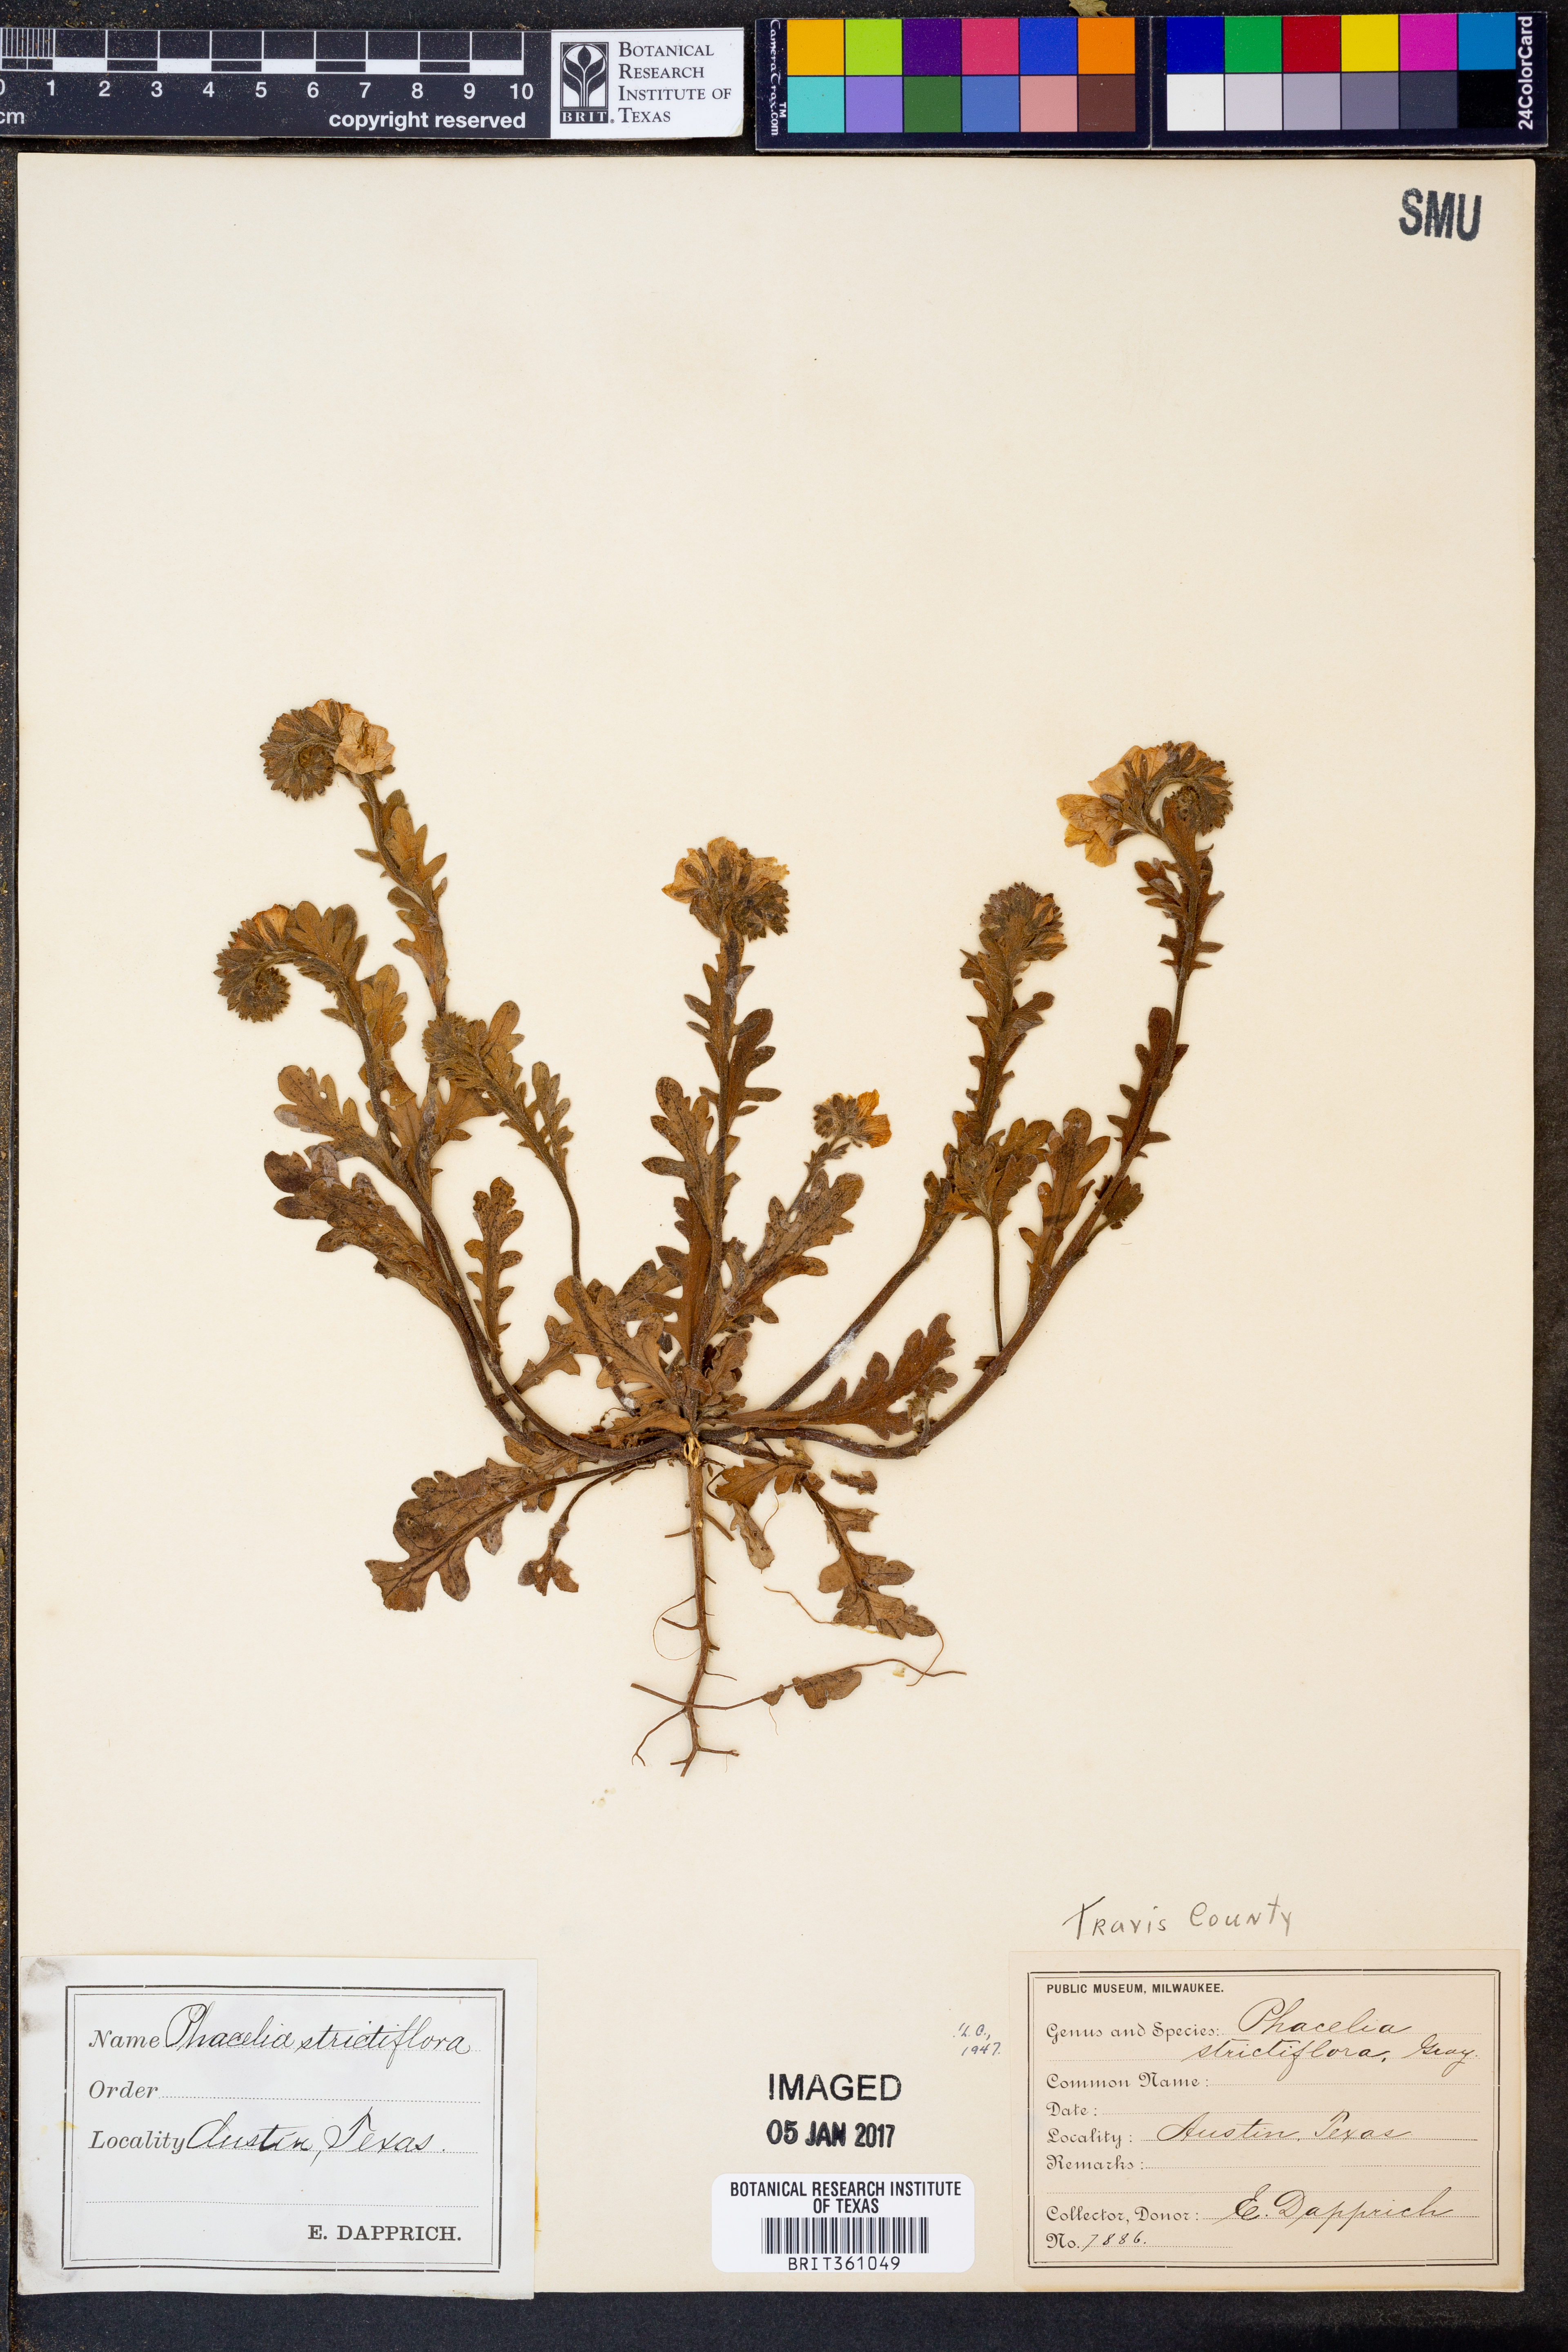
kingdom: Plantae
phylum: Tracheophyta
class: Magnoliopsida
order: Boraginales
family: Hydrophyllaceae
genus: Phacelia
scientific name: Phacelia strictiflora
